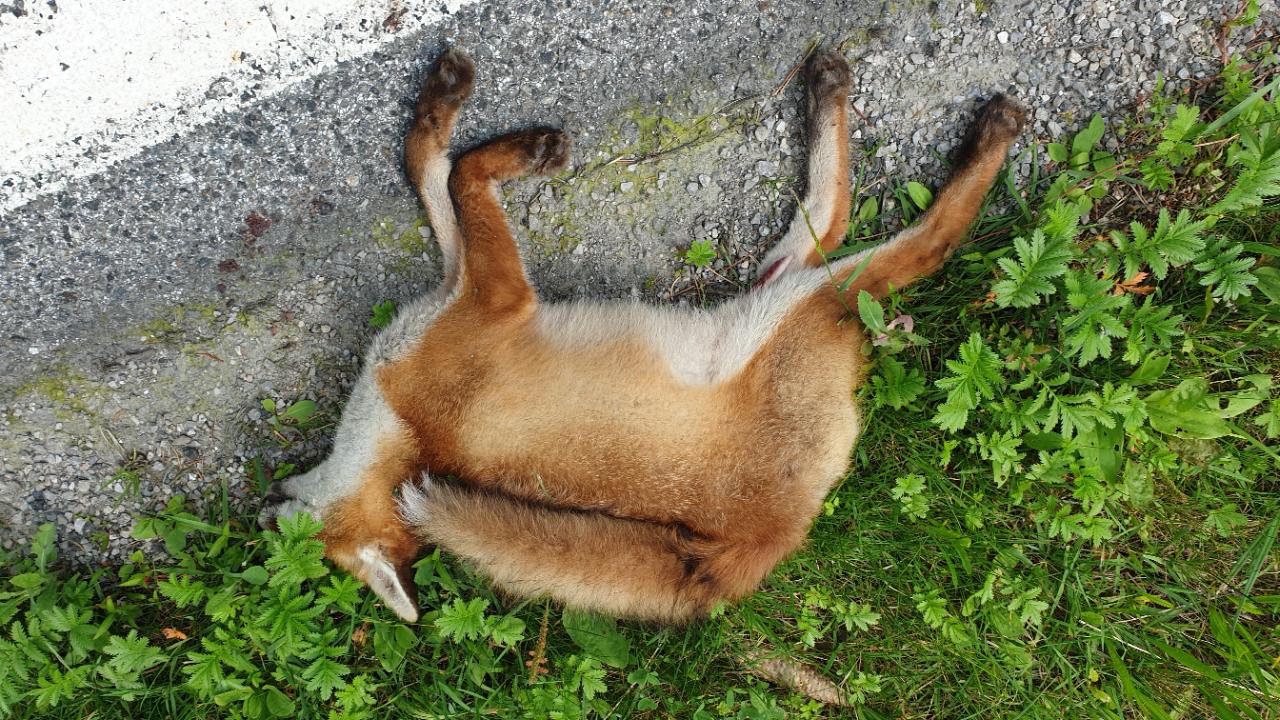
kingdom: Animalia
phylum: Chordata
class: Mammalia
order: Carnivora
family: Canidae
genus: Vulpes
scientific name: Vulpes vulpes
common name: Red fox
